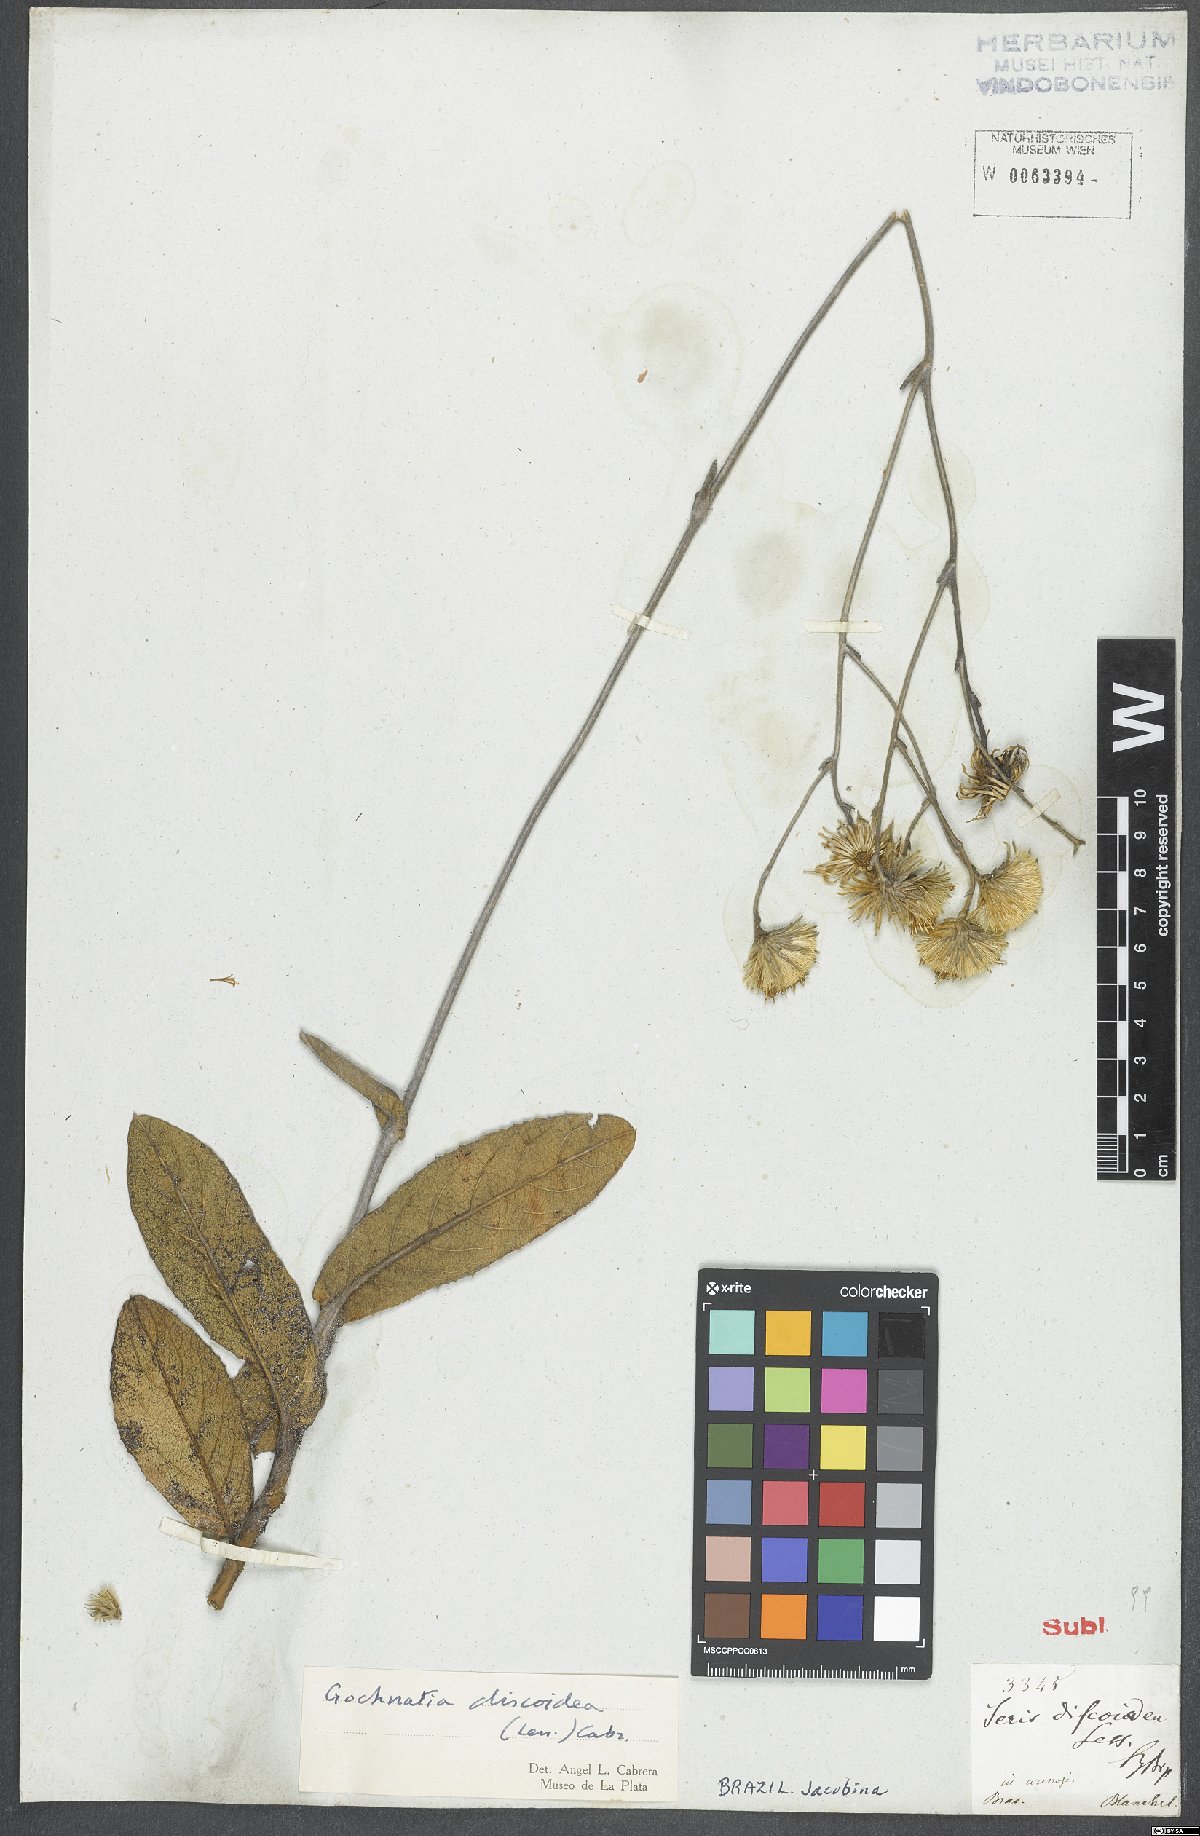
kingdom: Plantae
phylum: Tracheophyta
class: Magnoliopsida
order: Asterales
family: Asteraceae
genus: Richterago
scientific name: Richterago discoidea
